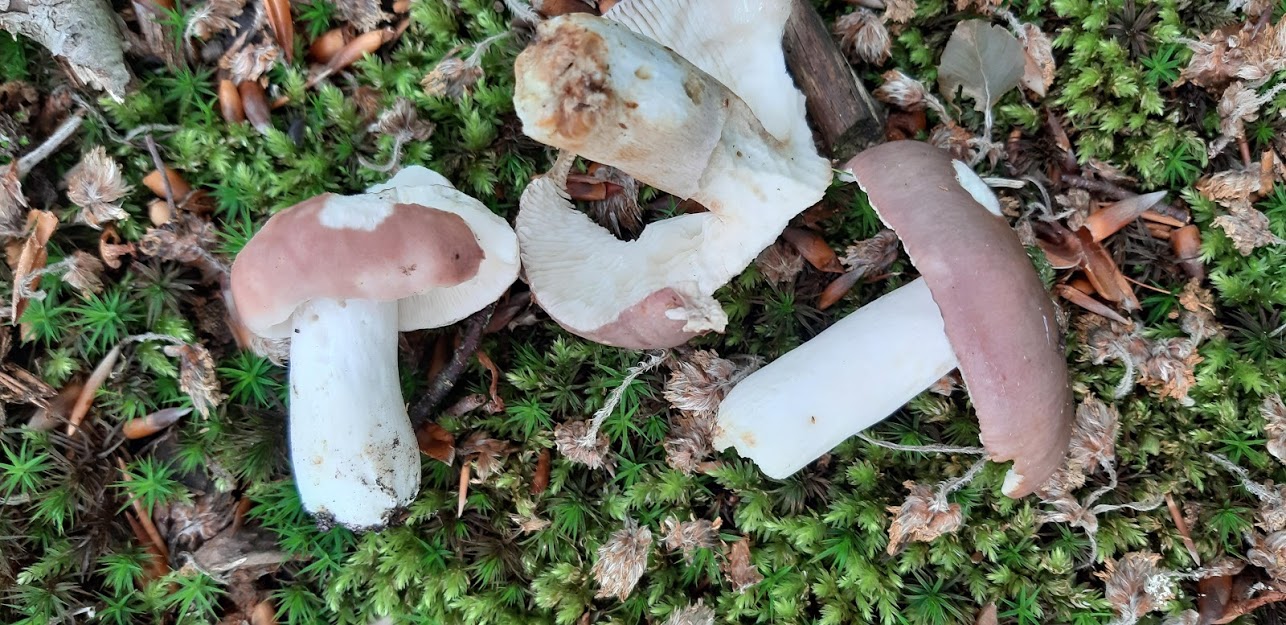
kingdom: Fungi
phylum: Basidiomycota
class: Agaricomycetes
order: Russulales
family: Russulaceae
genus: Russula
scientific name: Russula cyanoxantha
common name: broget skørhat
